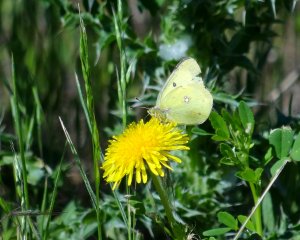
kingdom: Animalia
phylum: Arthropoda
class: Insecta
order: Lepidoptera
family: Pieridae
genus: Colias
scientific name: Colias eurytheme
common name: Orange Sulphur
